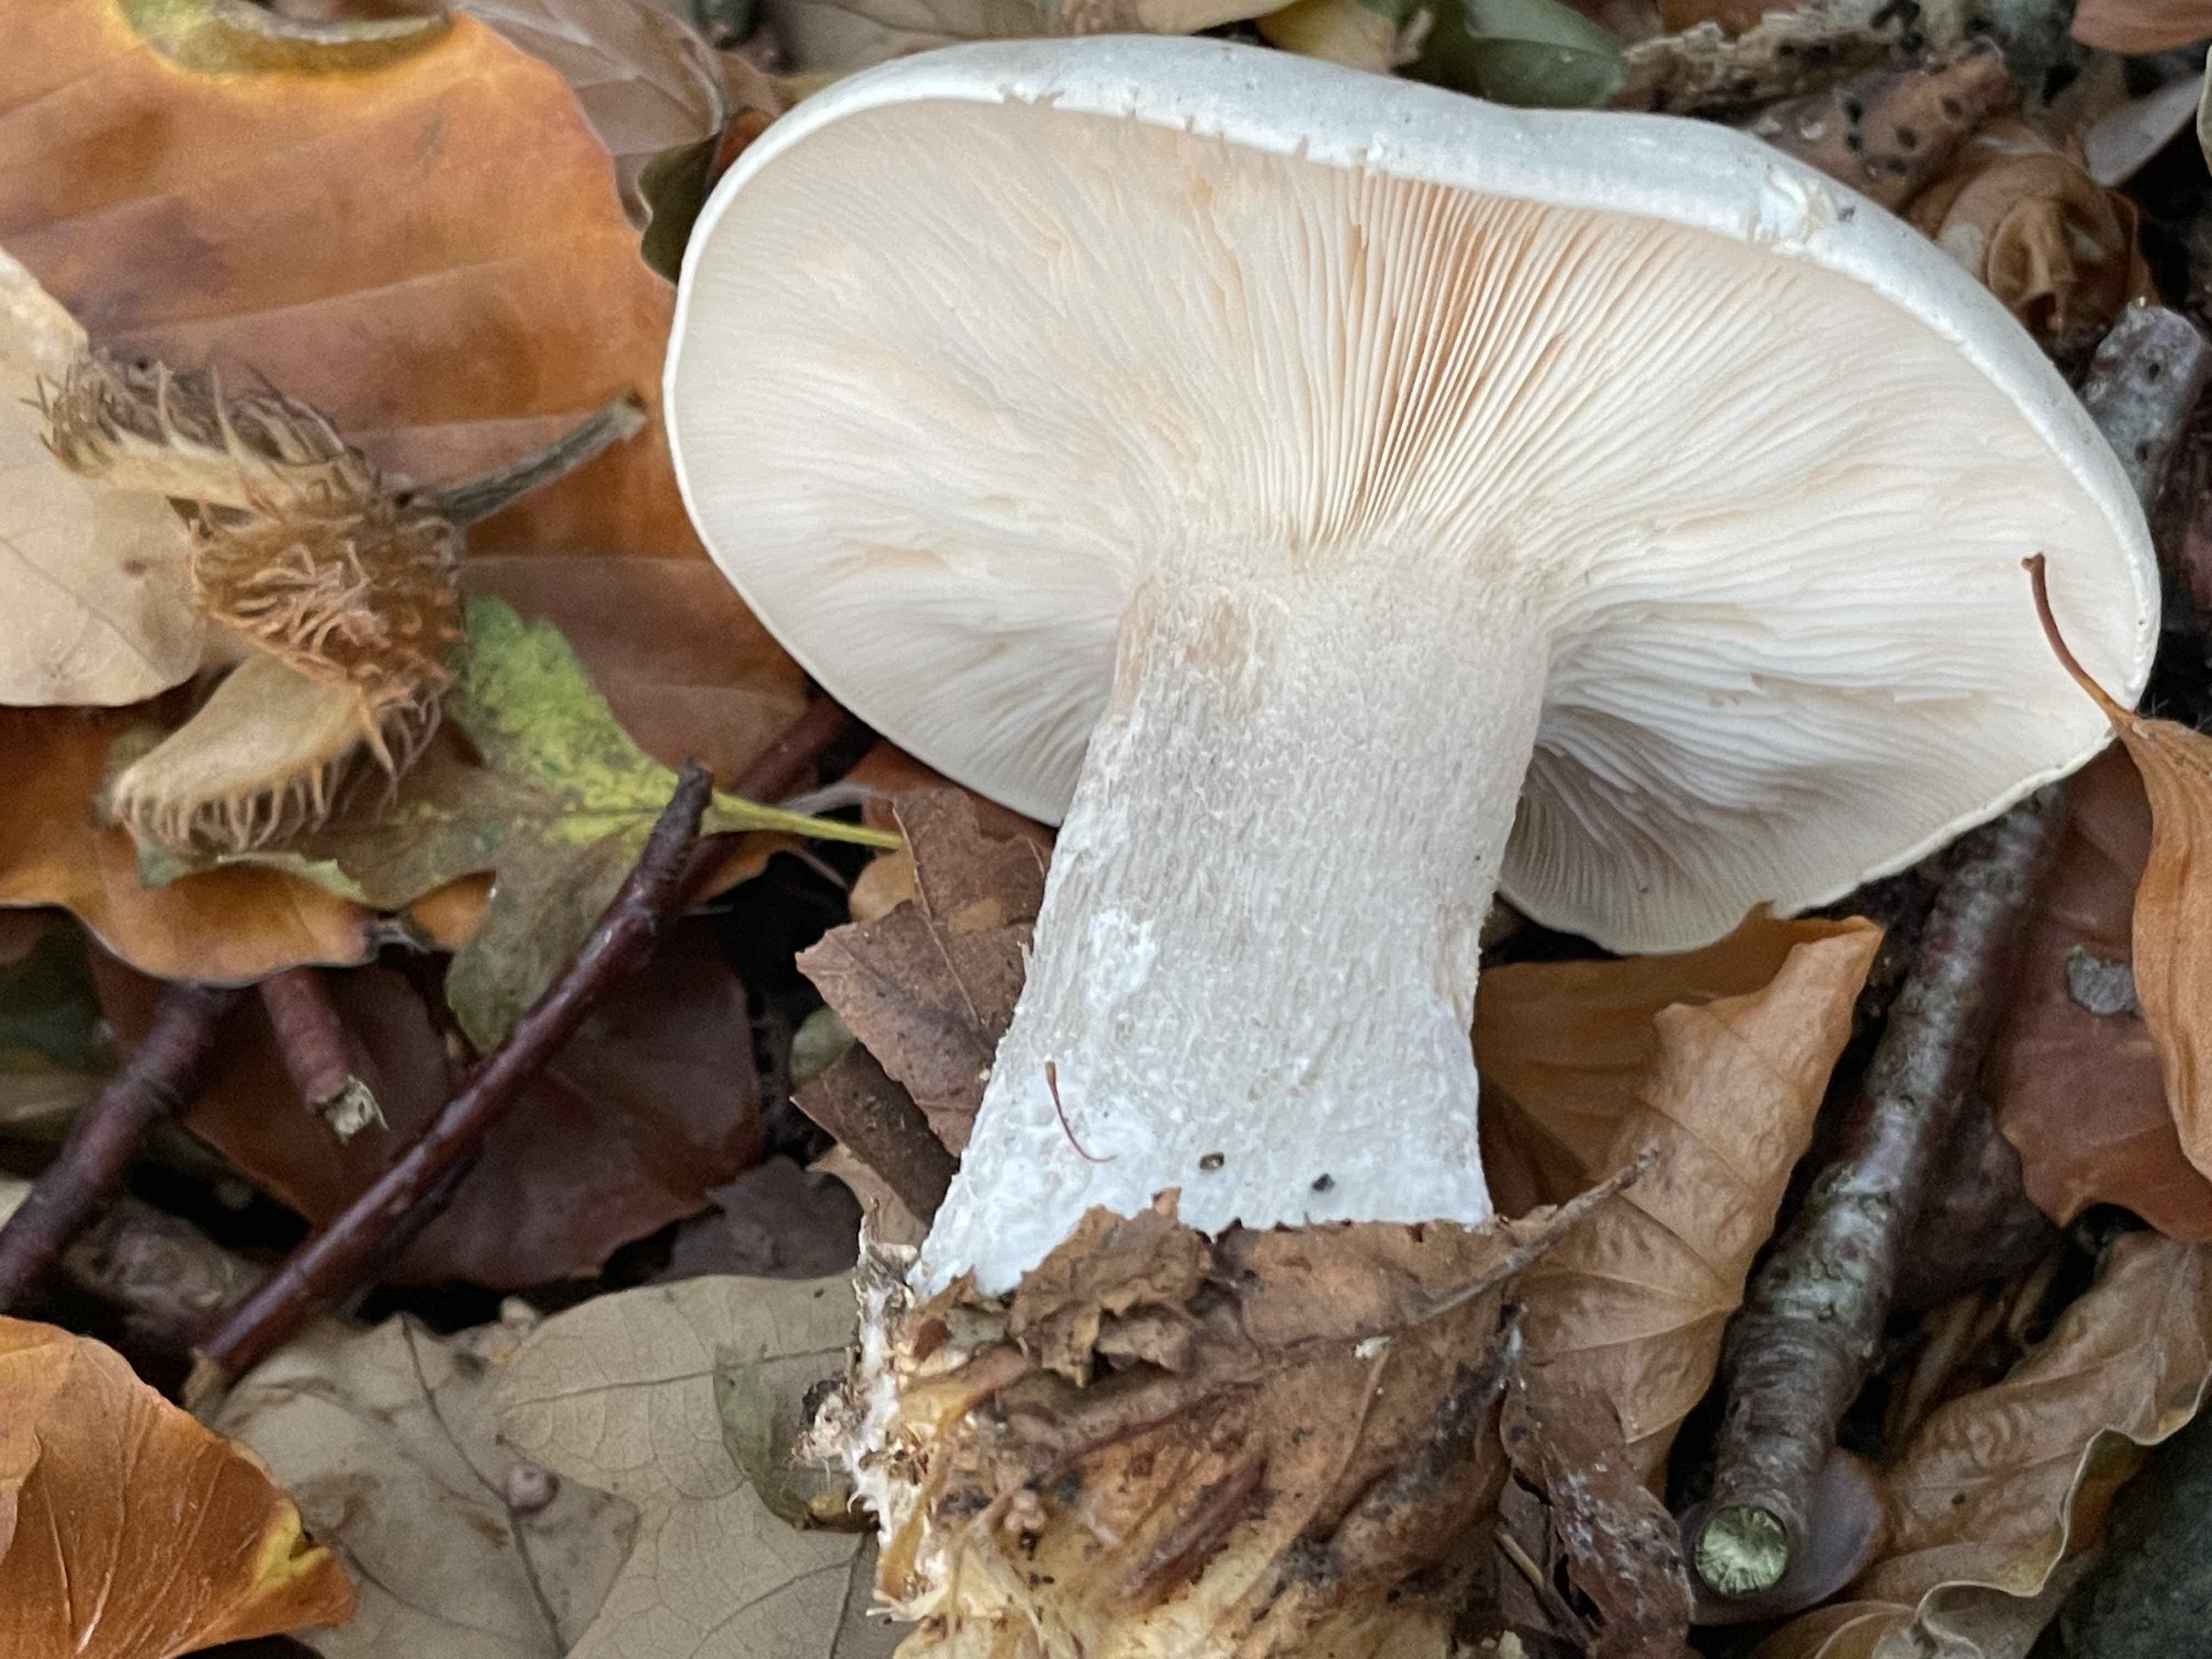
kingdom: Fungi
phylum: Basidiomycota
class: Agaricomycetes
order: Agaricales
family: Tricholomataceae
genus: Clitocybe
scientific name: Clitocybe nebularis
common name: tåge-tragthat
